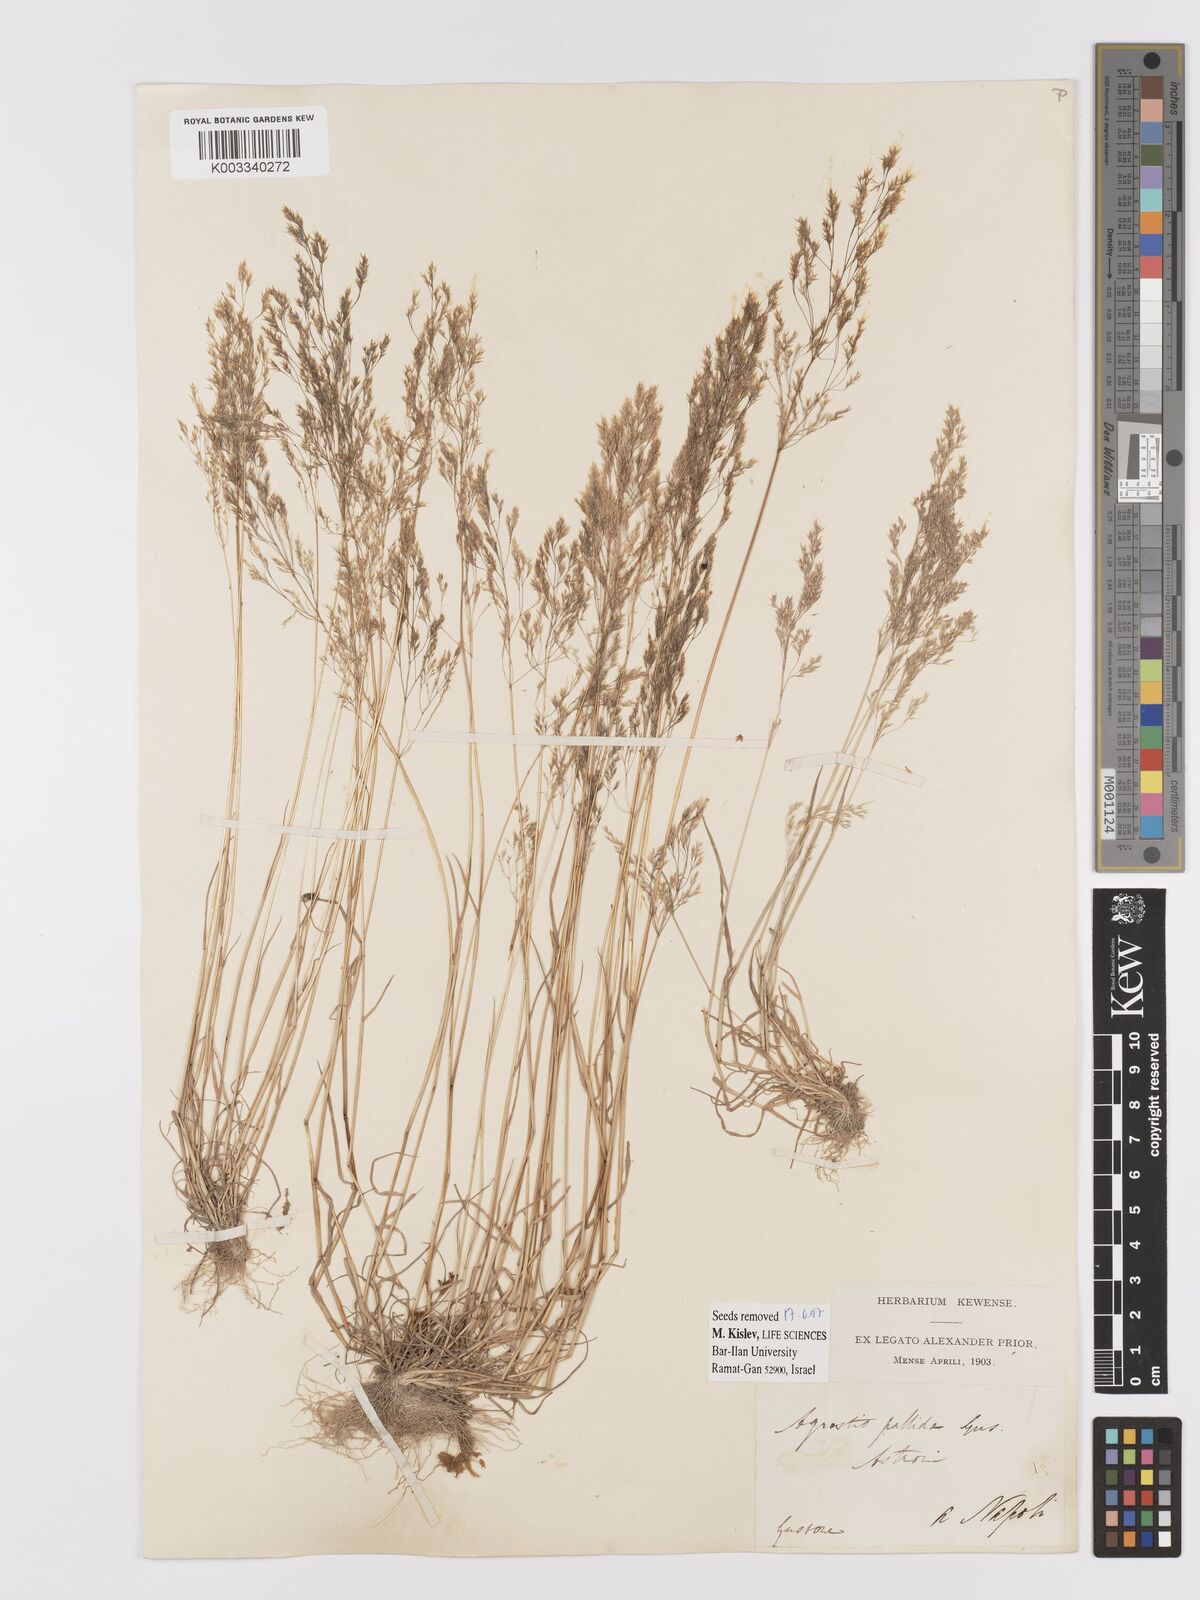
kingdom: Plantae
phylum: Tracheophyta
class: Liliopsida
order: Poales
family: Poaceae
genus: Agrostis
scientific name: Agrostis pourretii
